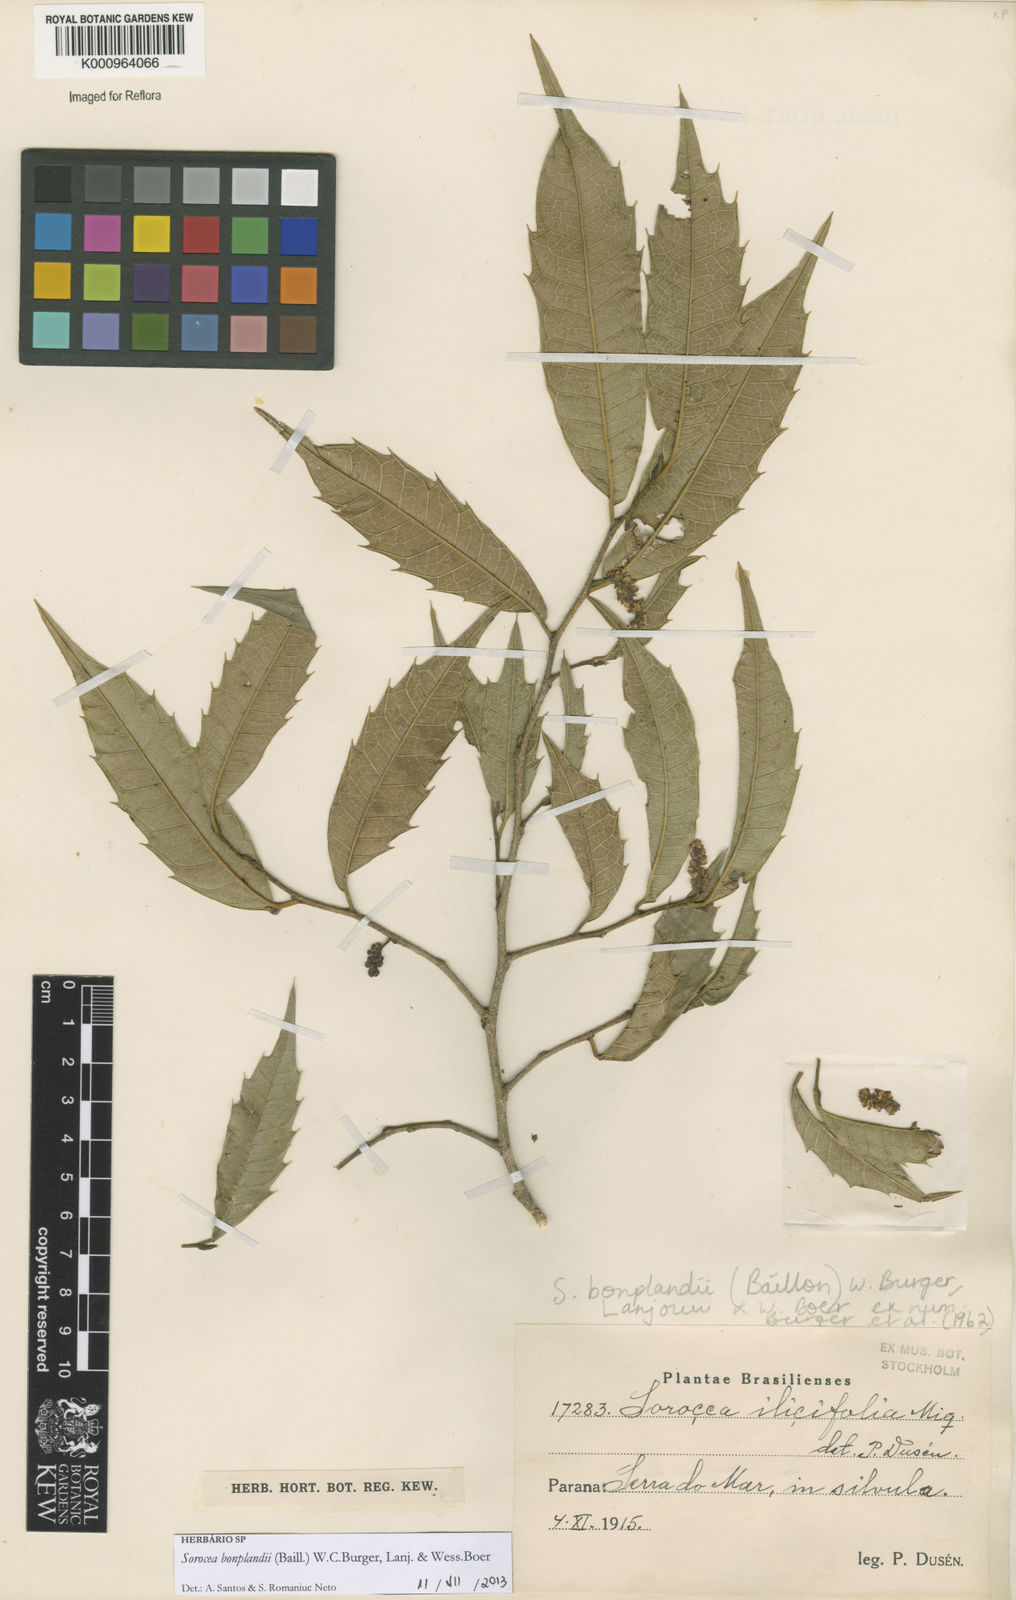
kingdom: Plantae
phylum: Tracheophyta
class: Magnoliopsida
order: Rosales
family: Moraceae
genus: Sorocea
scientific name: Sorocea
